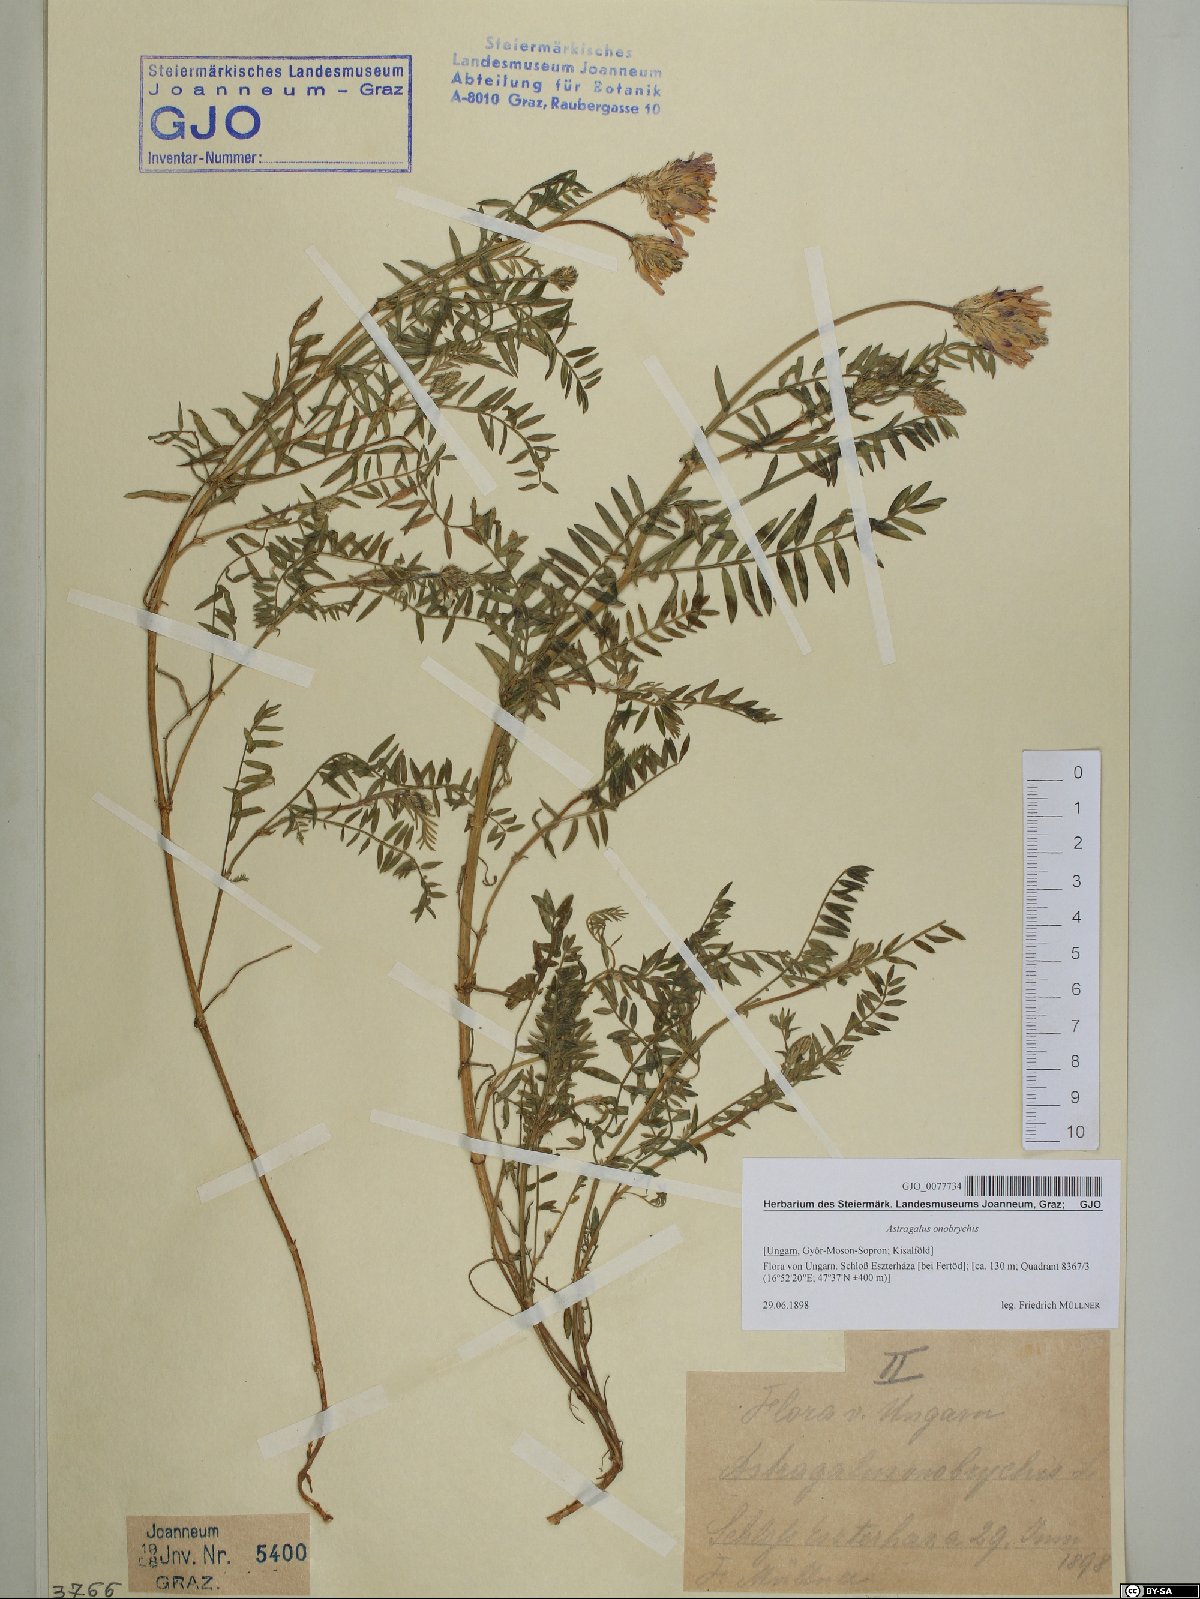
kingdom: Plantae
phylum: Tracheophyta
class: Magnoliopsida
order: Fabales
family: Fabaceae
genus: Astragalus
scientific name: Astragalus onobrychis
